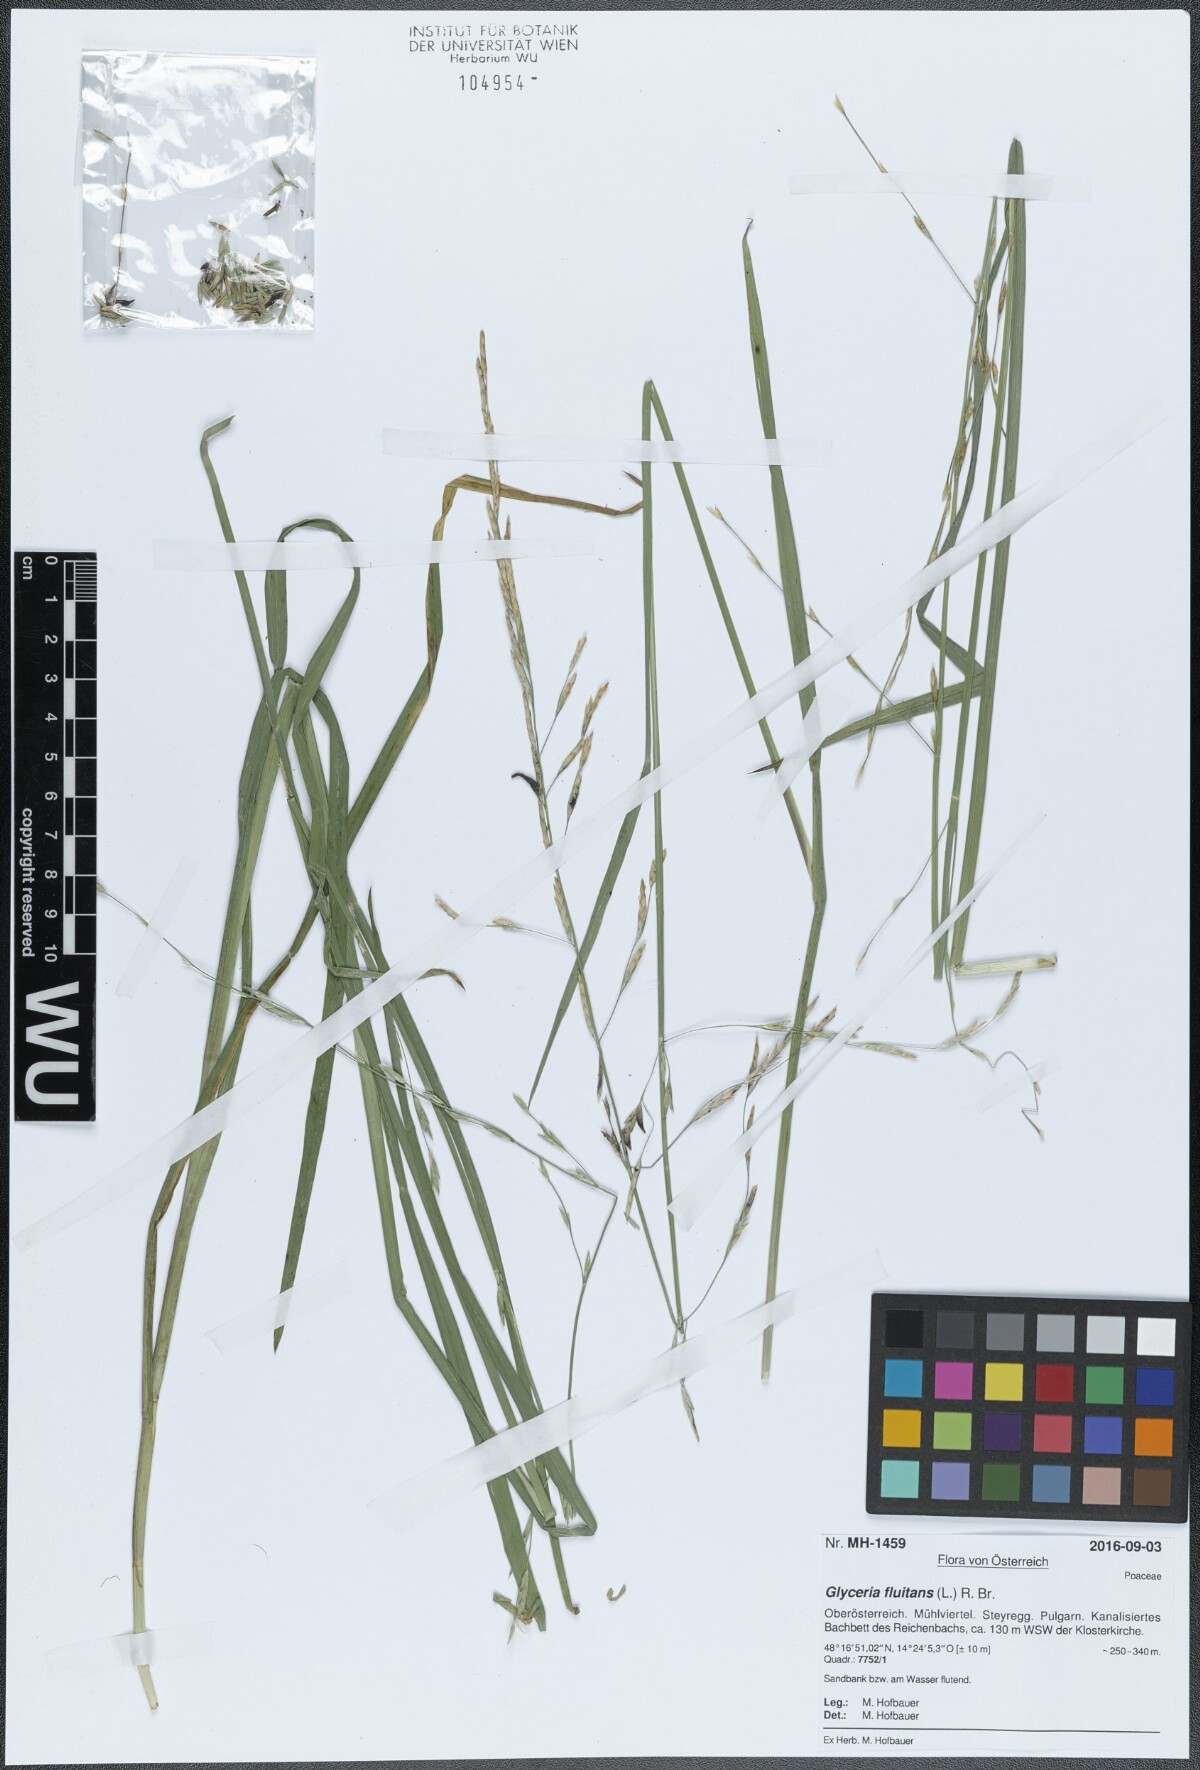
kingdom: Plantae
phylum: Tracheophyta
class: Liliopsida
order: Poales
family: Poaceae
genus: Glyceria
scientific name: Glyceria fluitans
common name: Floating sweet-grass
